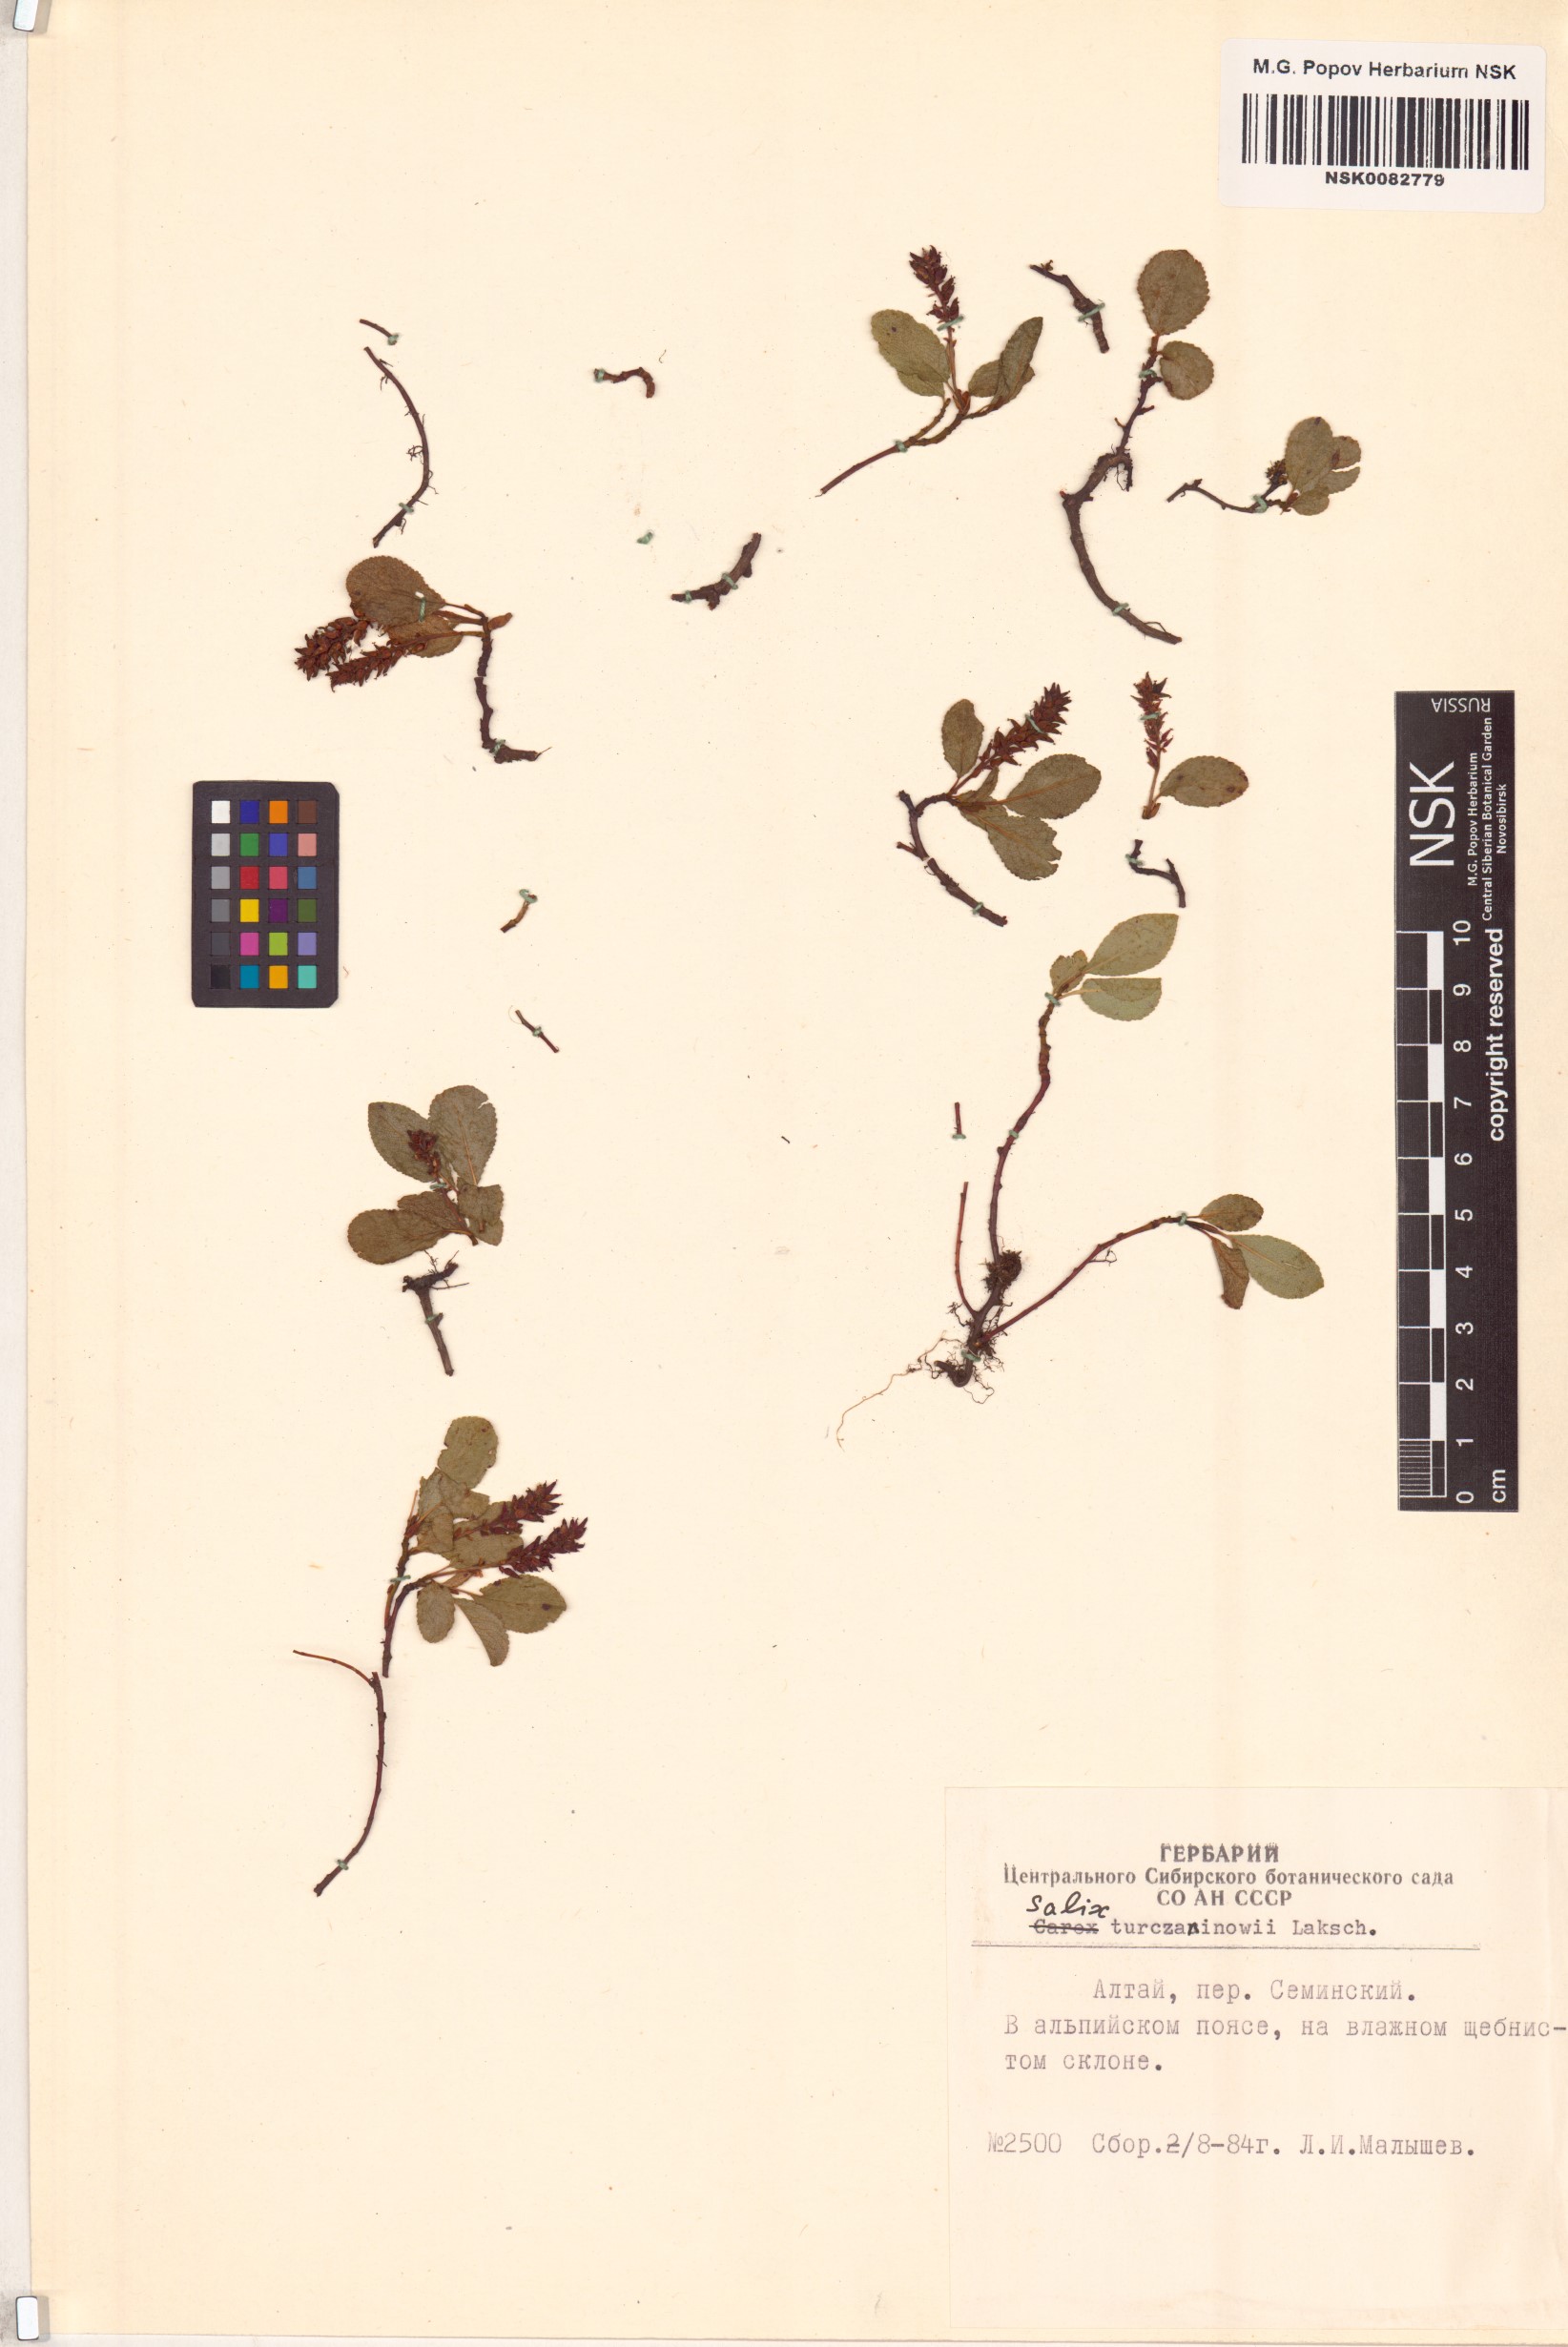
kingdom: Plantae
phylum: Tracheophyta
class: Magnoliopsida
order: Malpighiales
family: Salicaceae
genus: Salix
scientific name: Salix turczaninowii
